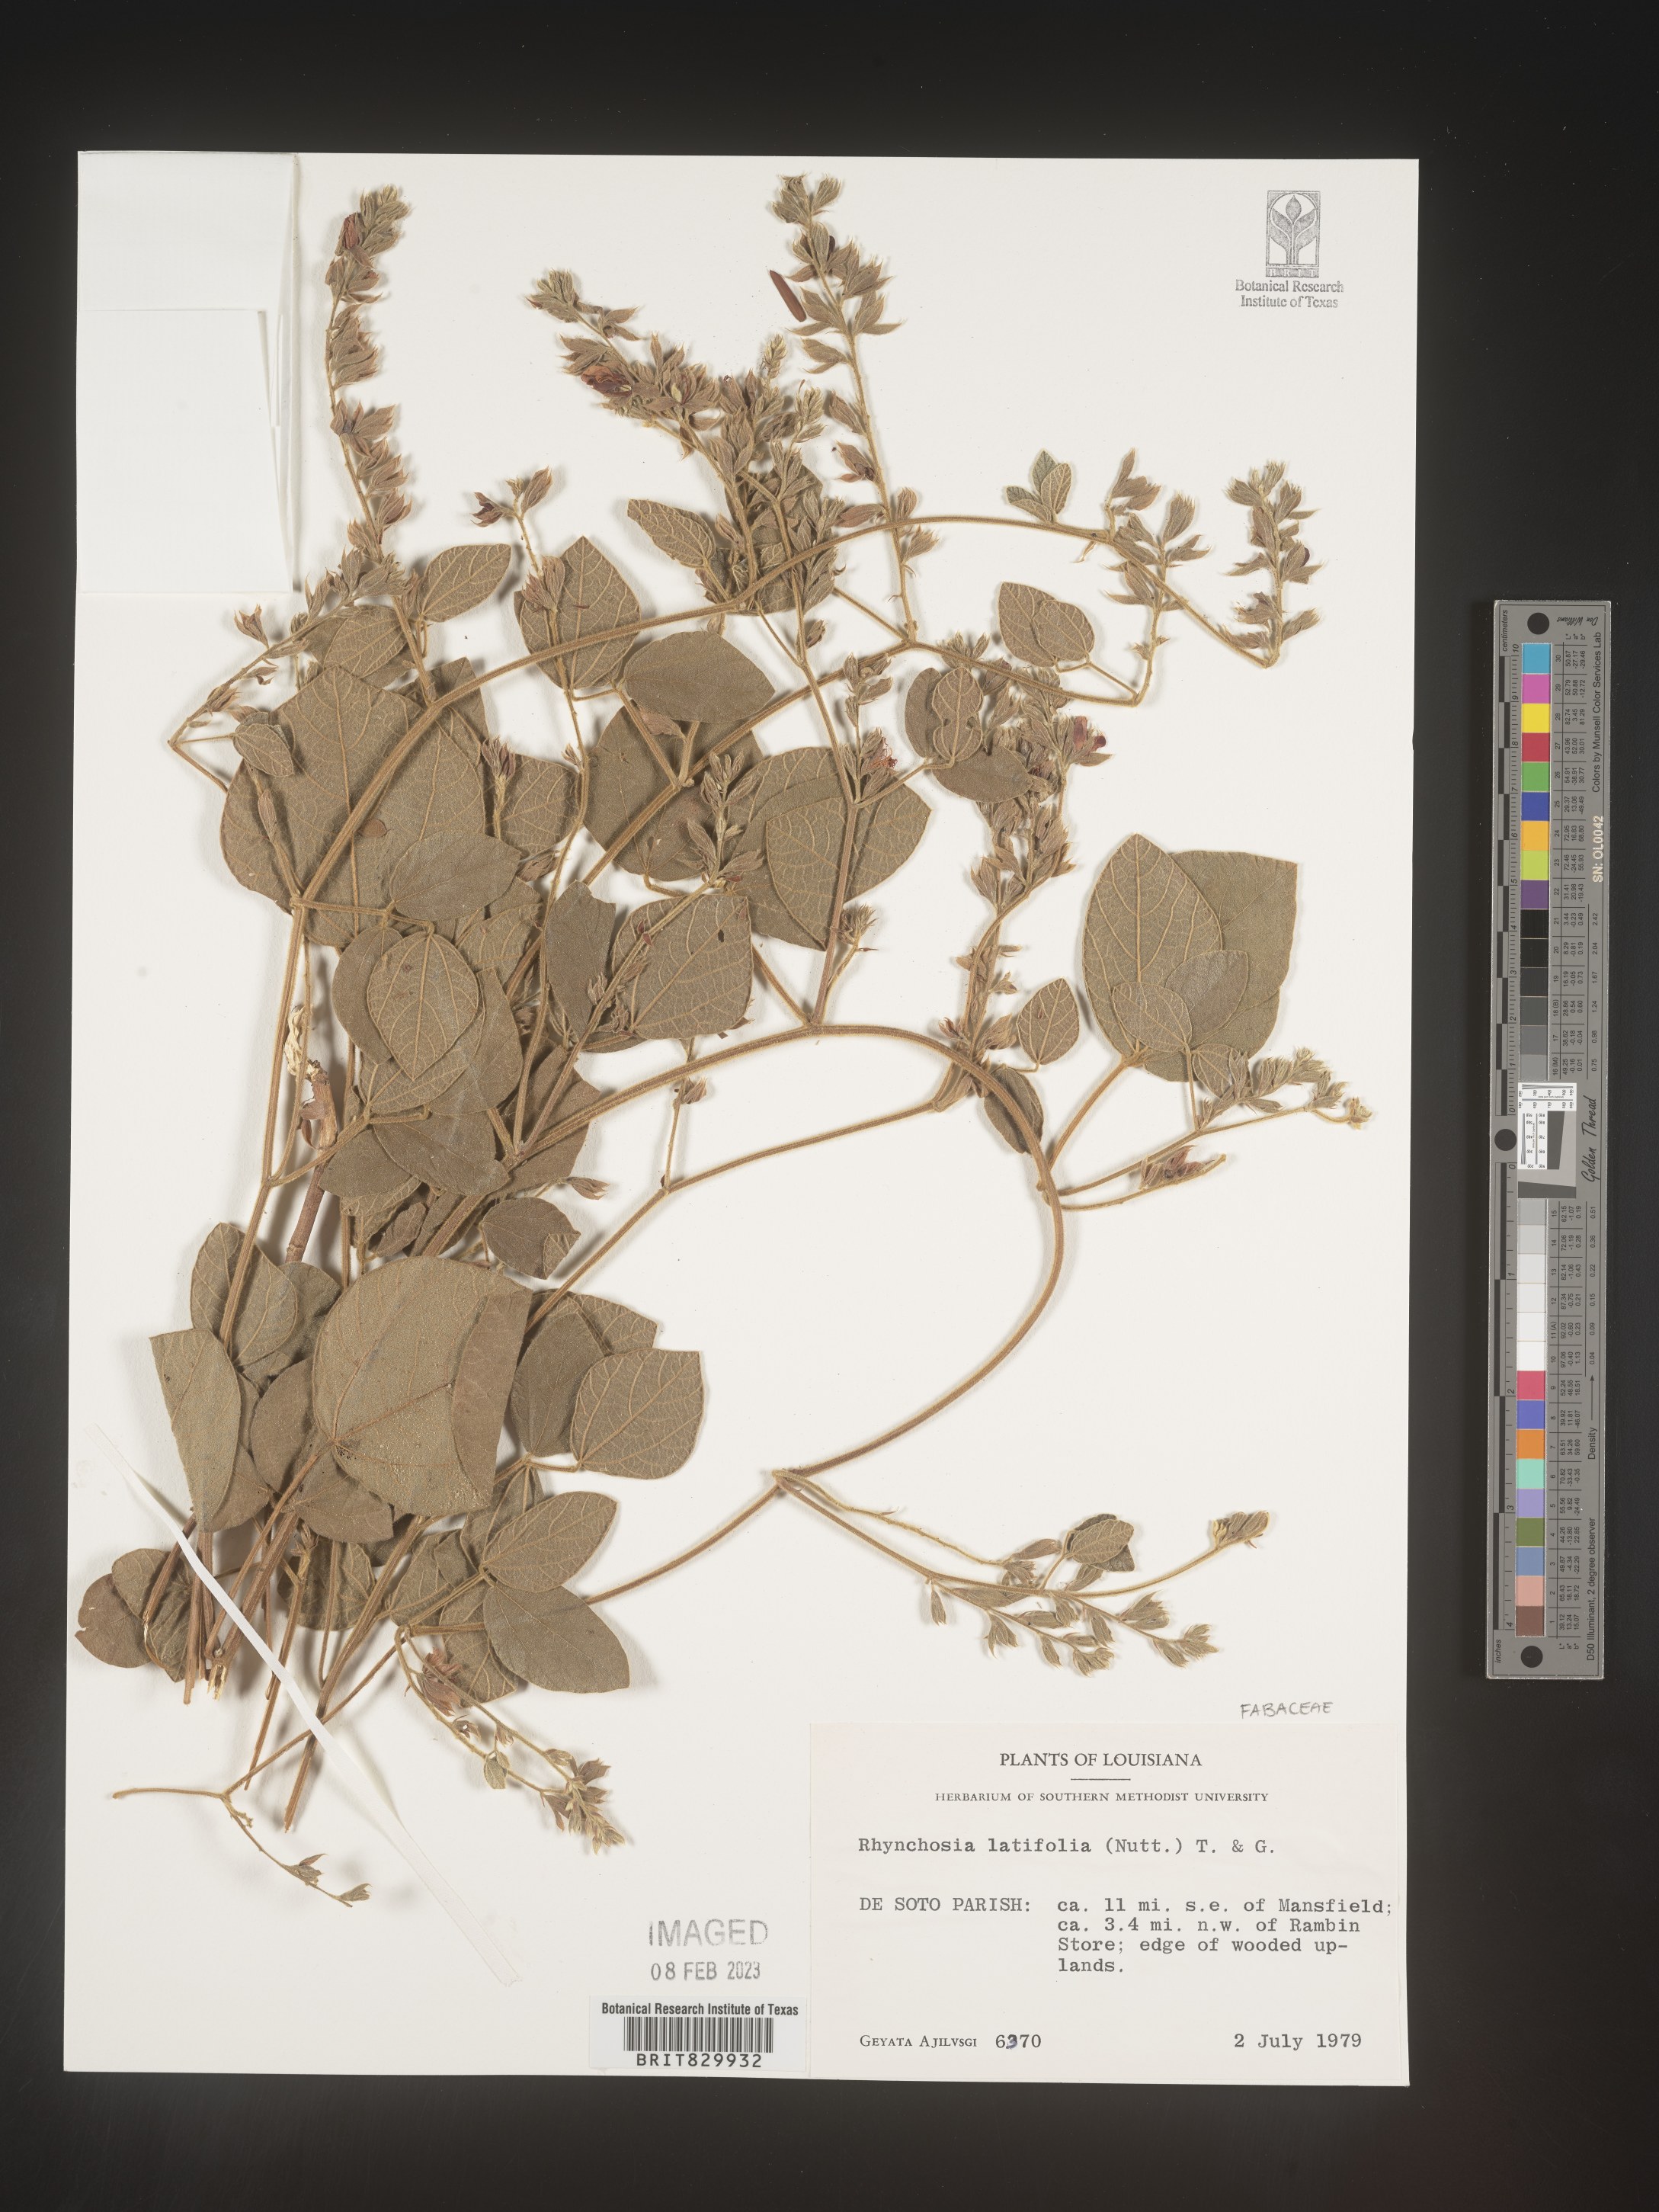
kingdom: Plantae
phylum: Tracheophyta
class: Magnoliopsida
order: Fabales
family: Fabaceae
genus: Rhynchosia
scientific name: Rhynchosia latifolia
